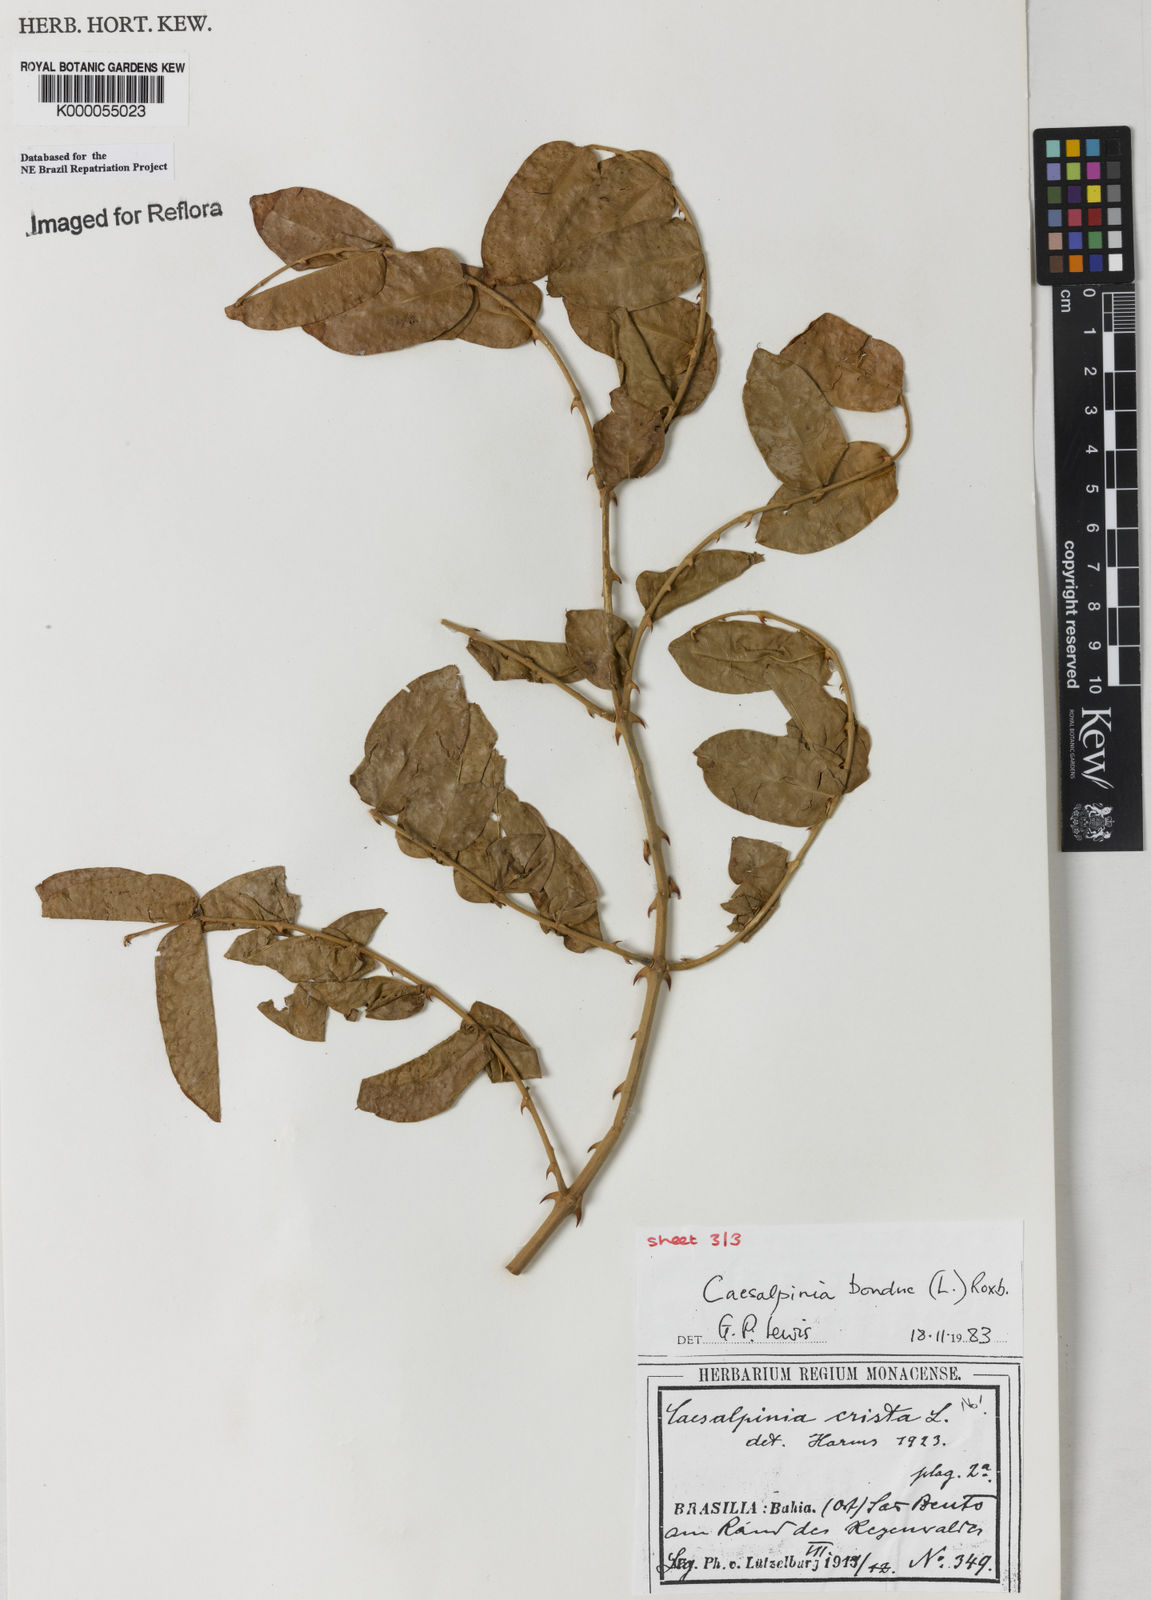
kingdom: Plantae
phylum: Tracheophyta
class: Magnoliopsida
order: Fabales
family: Fabaceae
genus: Guilandina
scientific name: Guilandina bonduc
